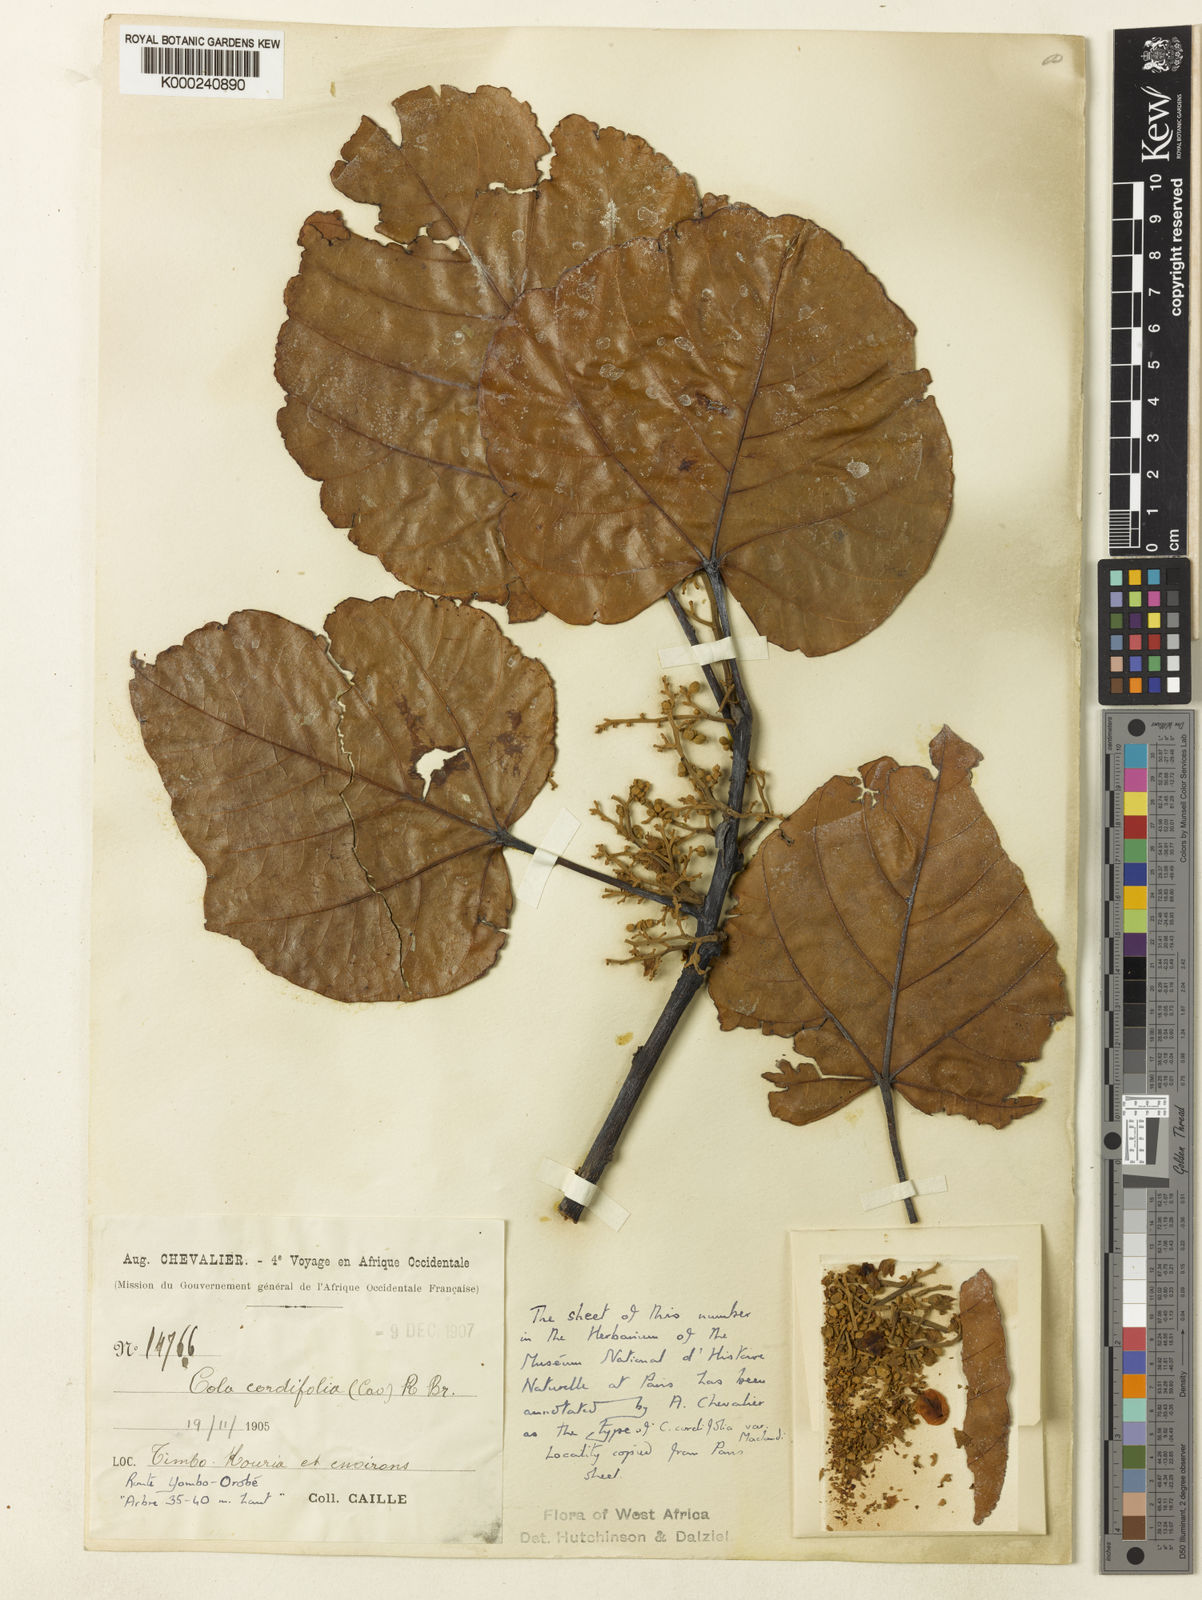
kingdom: Plantae
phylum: Tracheophyta
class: Magnoliopsida
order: Malvales
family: Malvaceae
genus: Cola
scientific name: Cola lateritia
